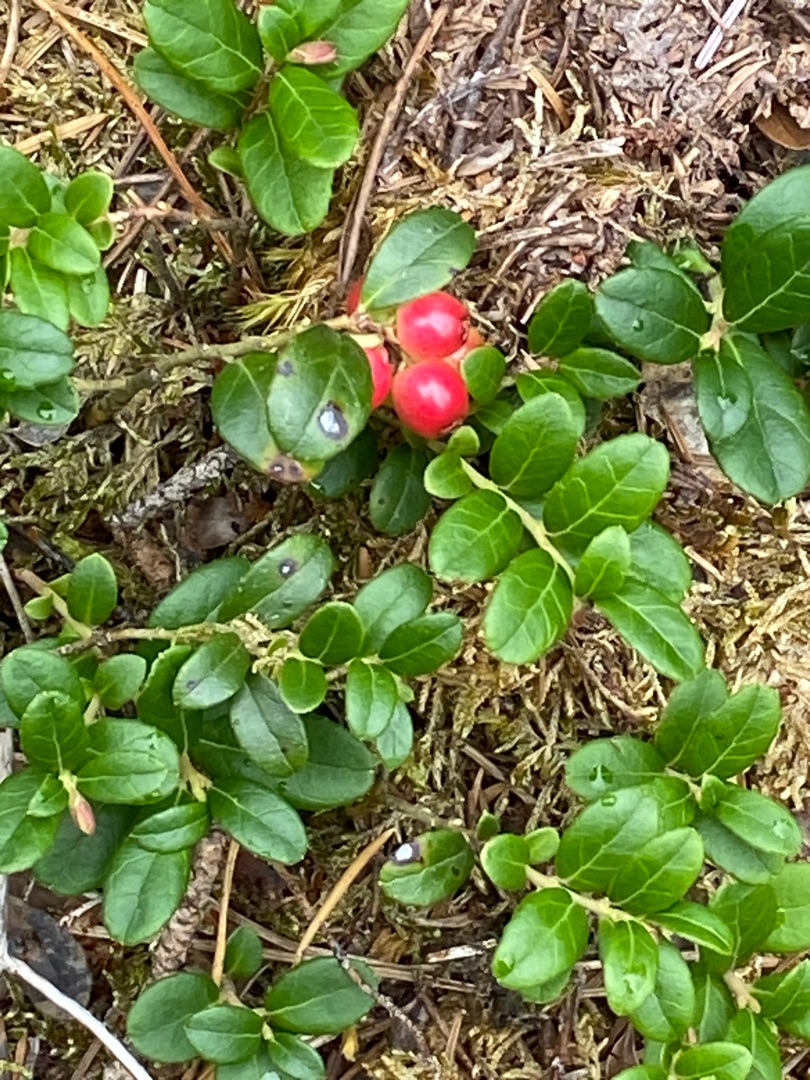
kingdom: Plantae
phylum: Tracheophyta
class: Magnoliopsida
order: Ericales
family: Ericaceae
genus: Vaccinium
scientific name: Vaccinium vitis-idaea
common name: Tyttebær
